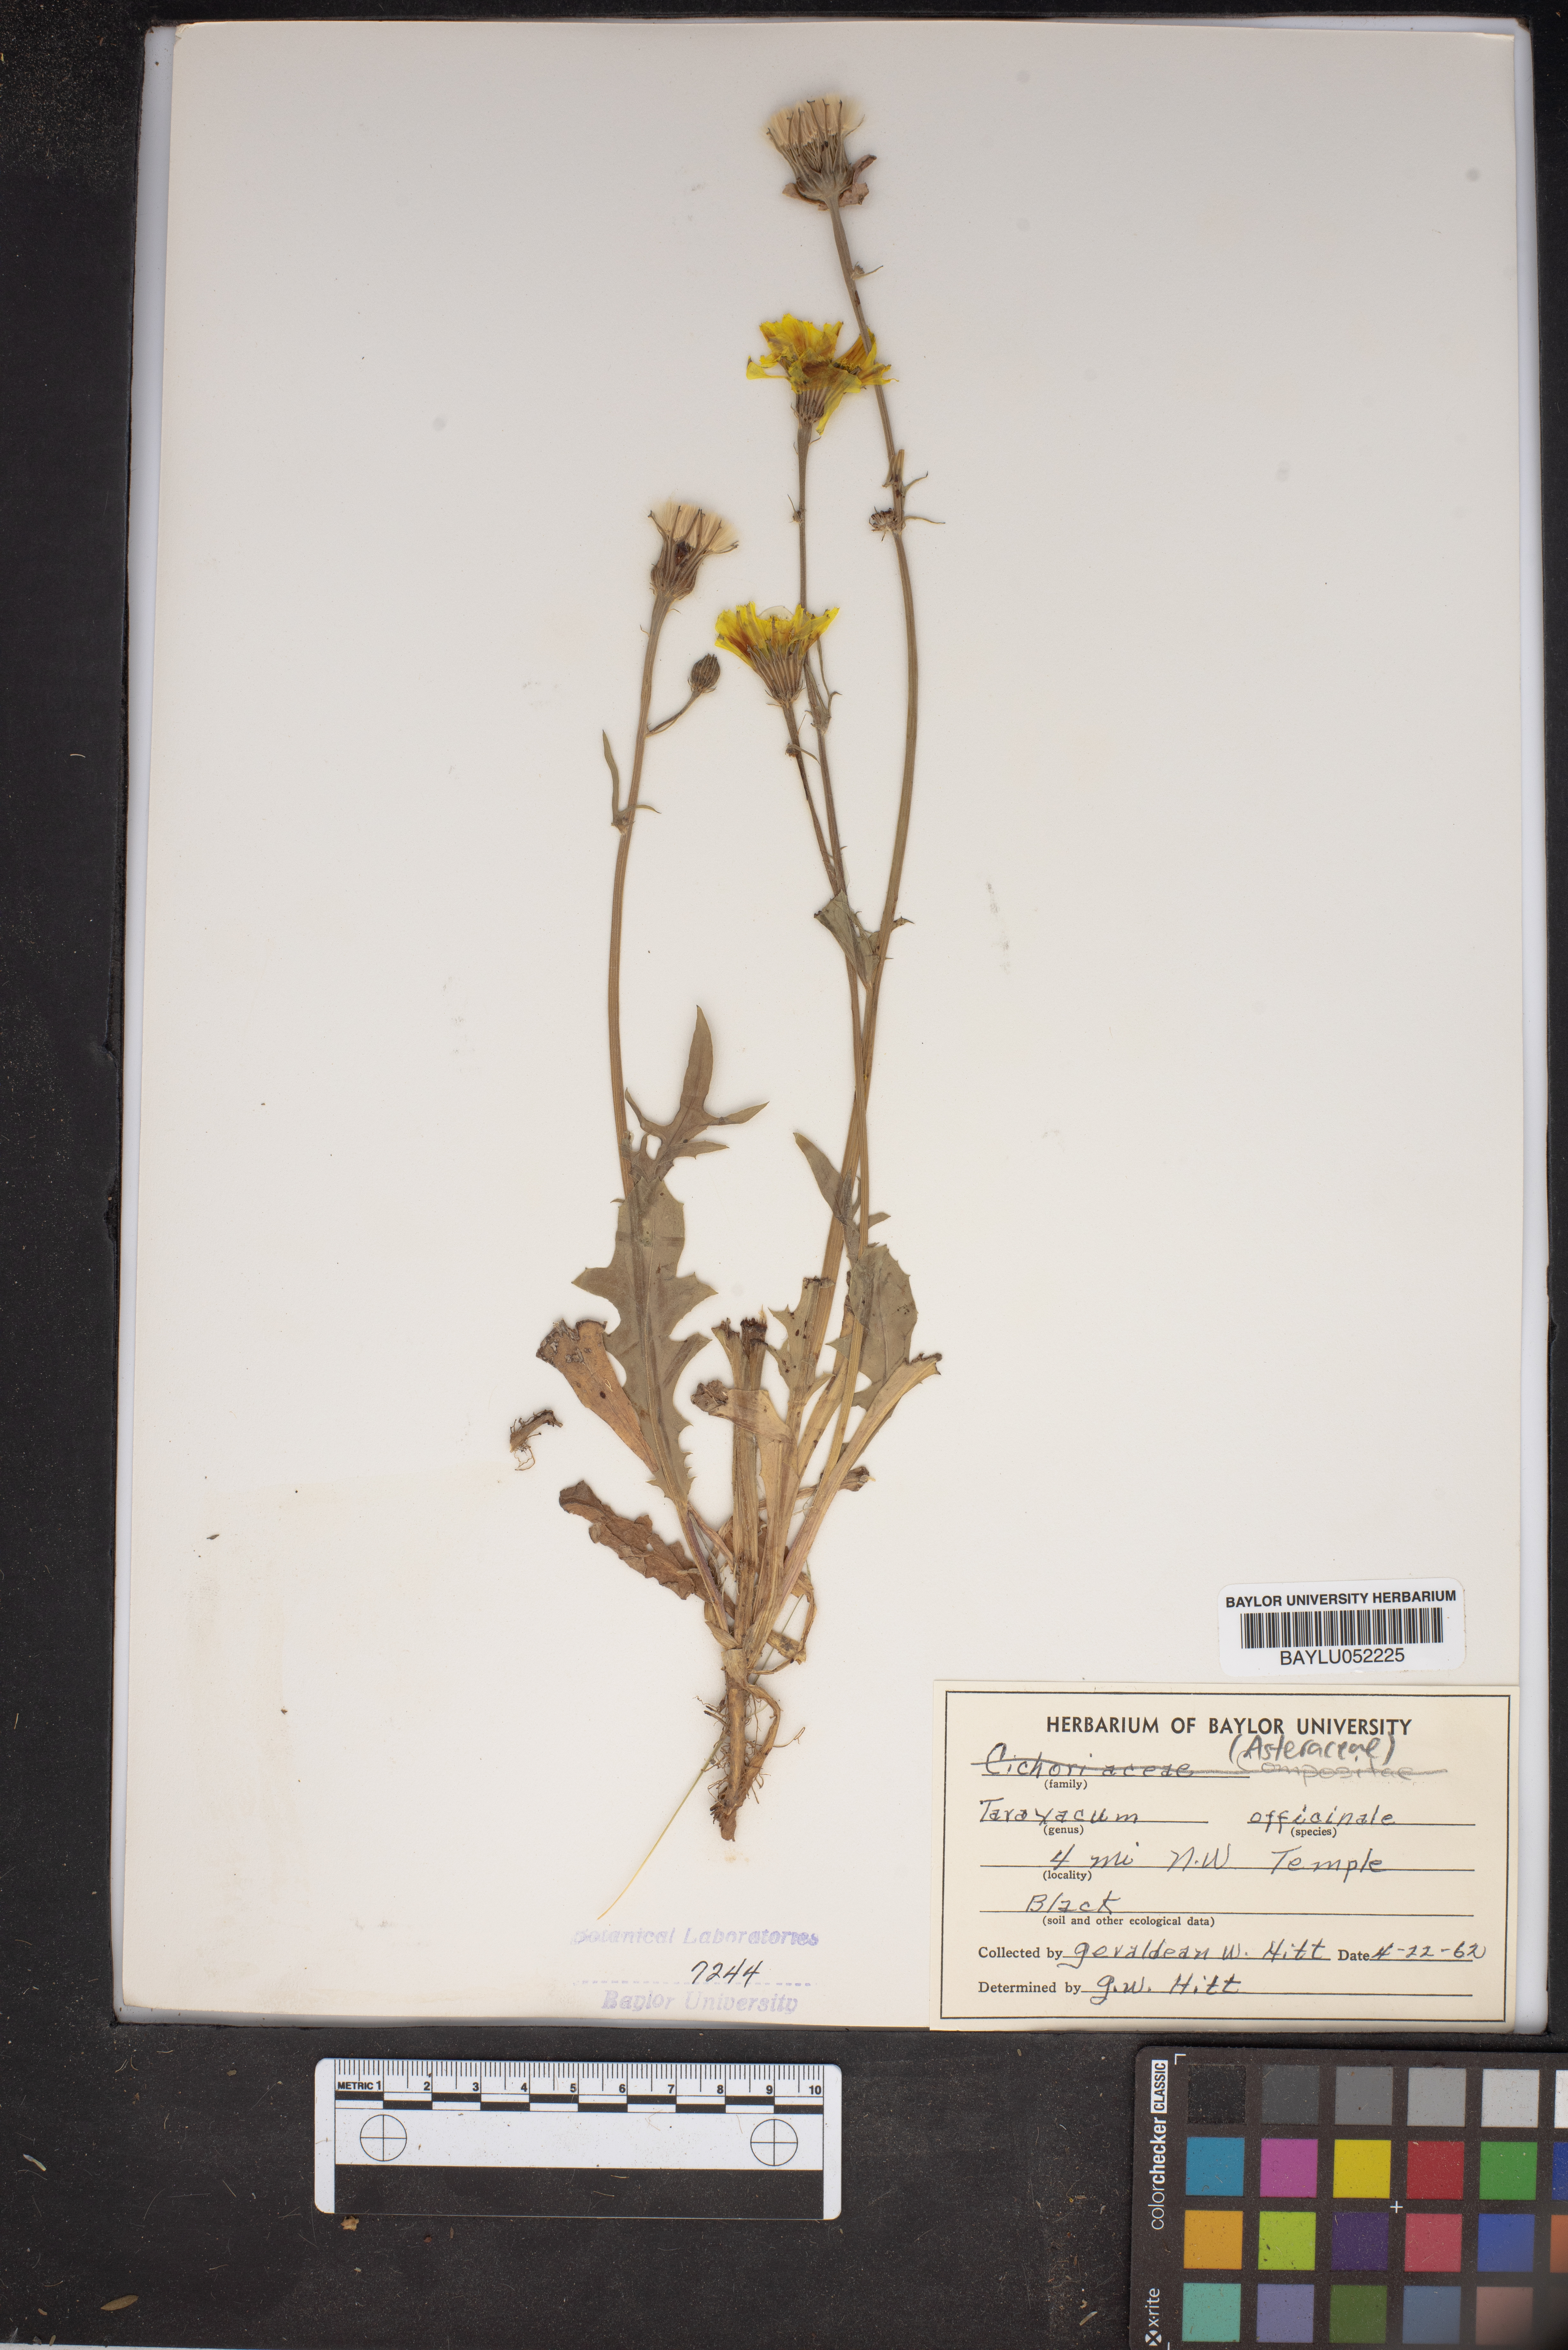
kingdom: Plantae
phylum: Tracheophyta
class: Magnoliopsida
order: Asterales
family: Asteraceae
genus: Taraxacum
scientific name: Taraxacum officinale
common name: Common dandelion
